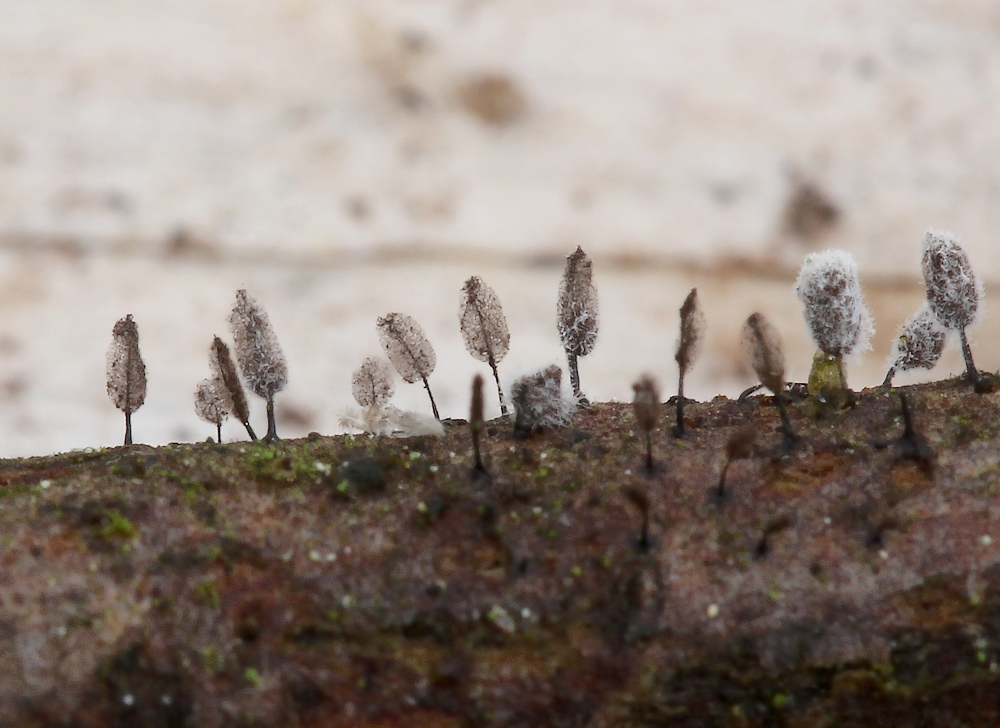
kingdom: Protozoa
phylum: Mycetozoa
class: Myxomycetes
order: Stemonitidales
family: Stemonitidaceae
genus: Comatricha
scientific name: Comatricha laxa
